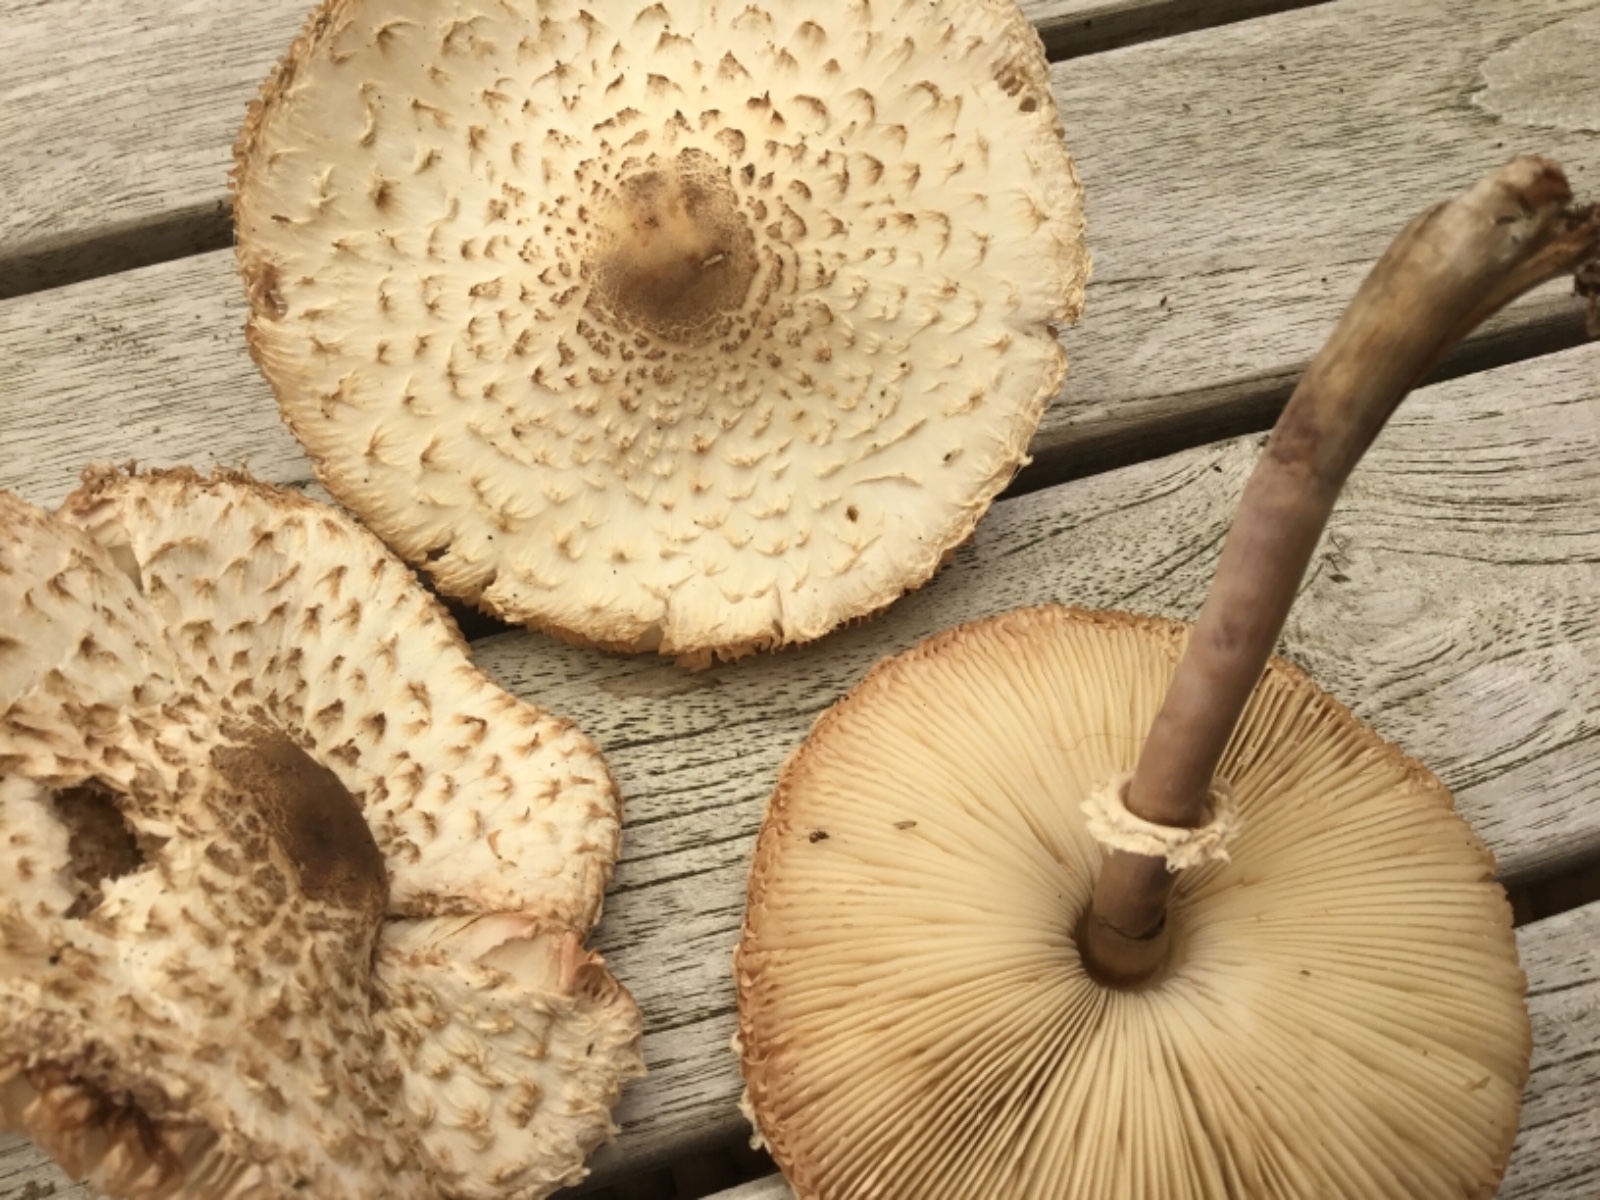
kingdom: Fungi
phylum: Basidiomycota
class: Agaricomycetes
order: Agaricales
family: Agaricaceae
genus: Leucoagaricus
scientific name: Leucoagaricus nympharum
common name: gran-silkehat
